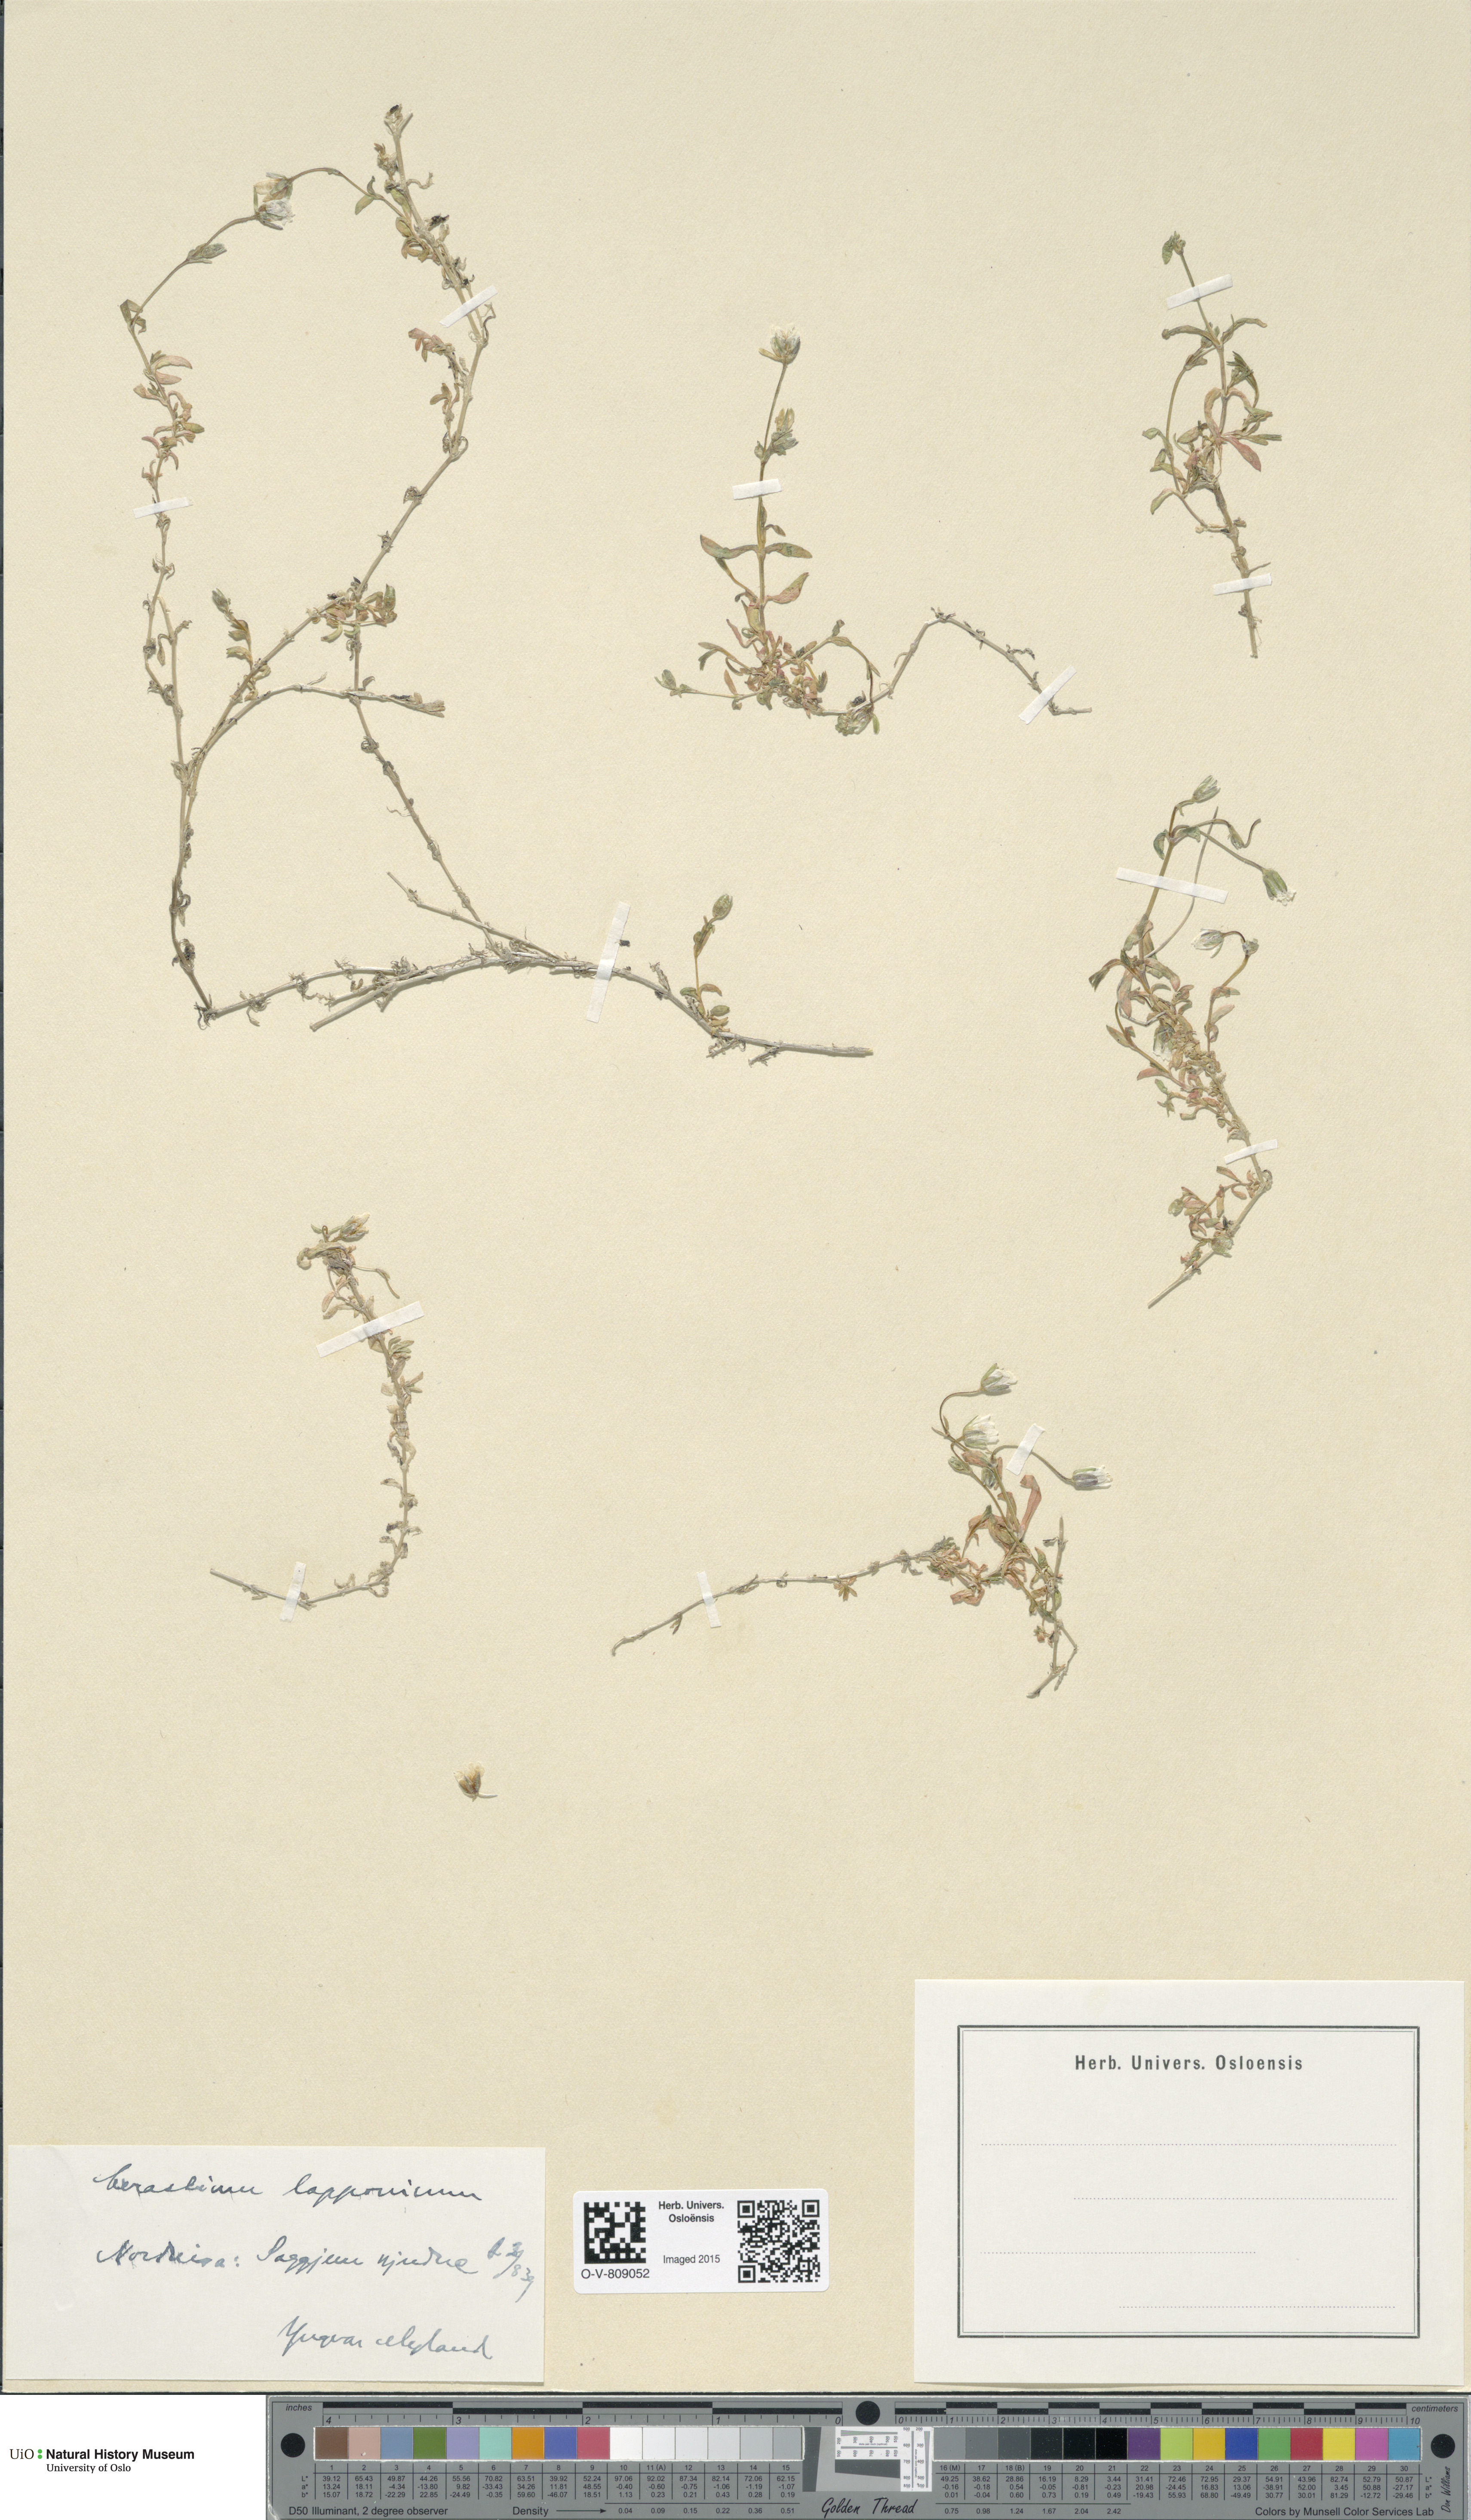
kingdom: Plantae
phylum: Tracheophyta
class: Magnoliopsida
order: Caryophyllales
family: Caryophyllaceae
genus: Dichodon
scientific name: Dichodon cerastoides
